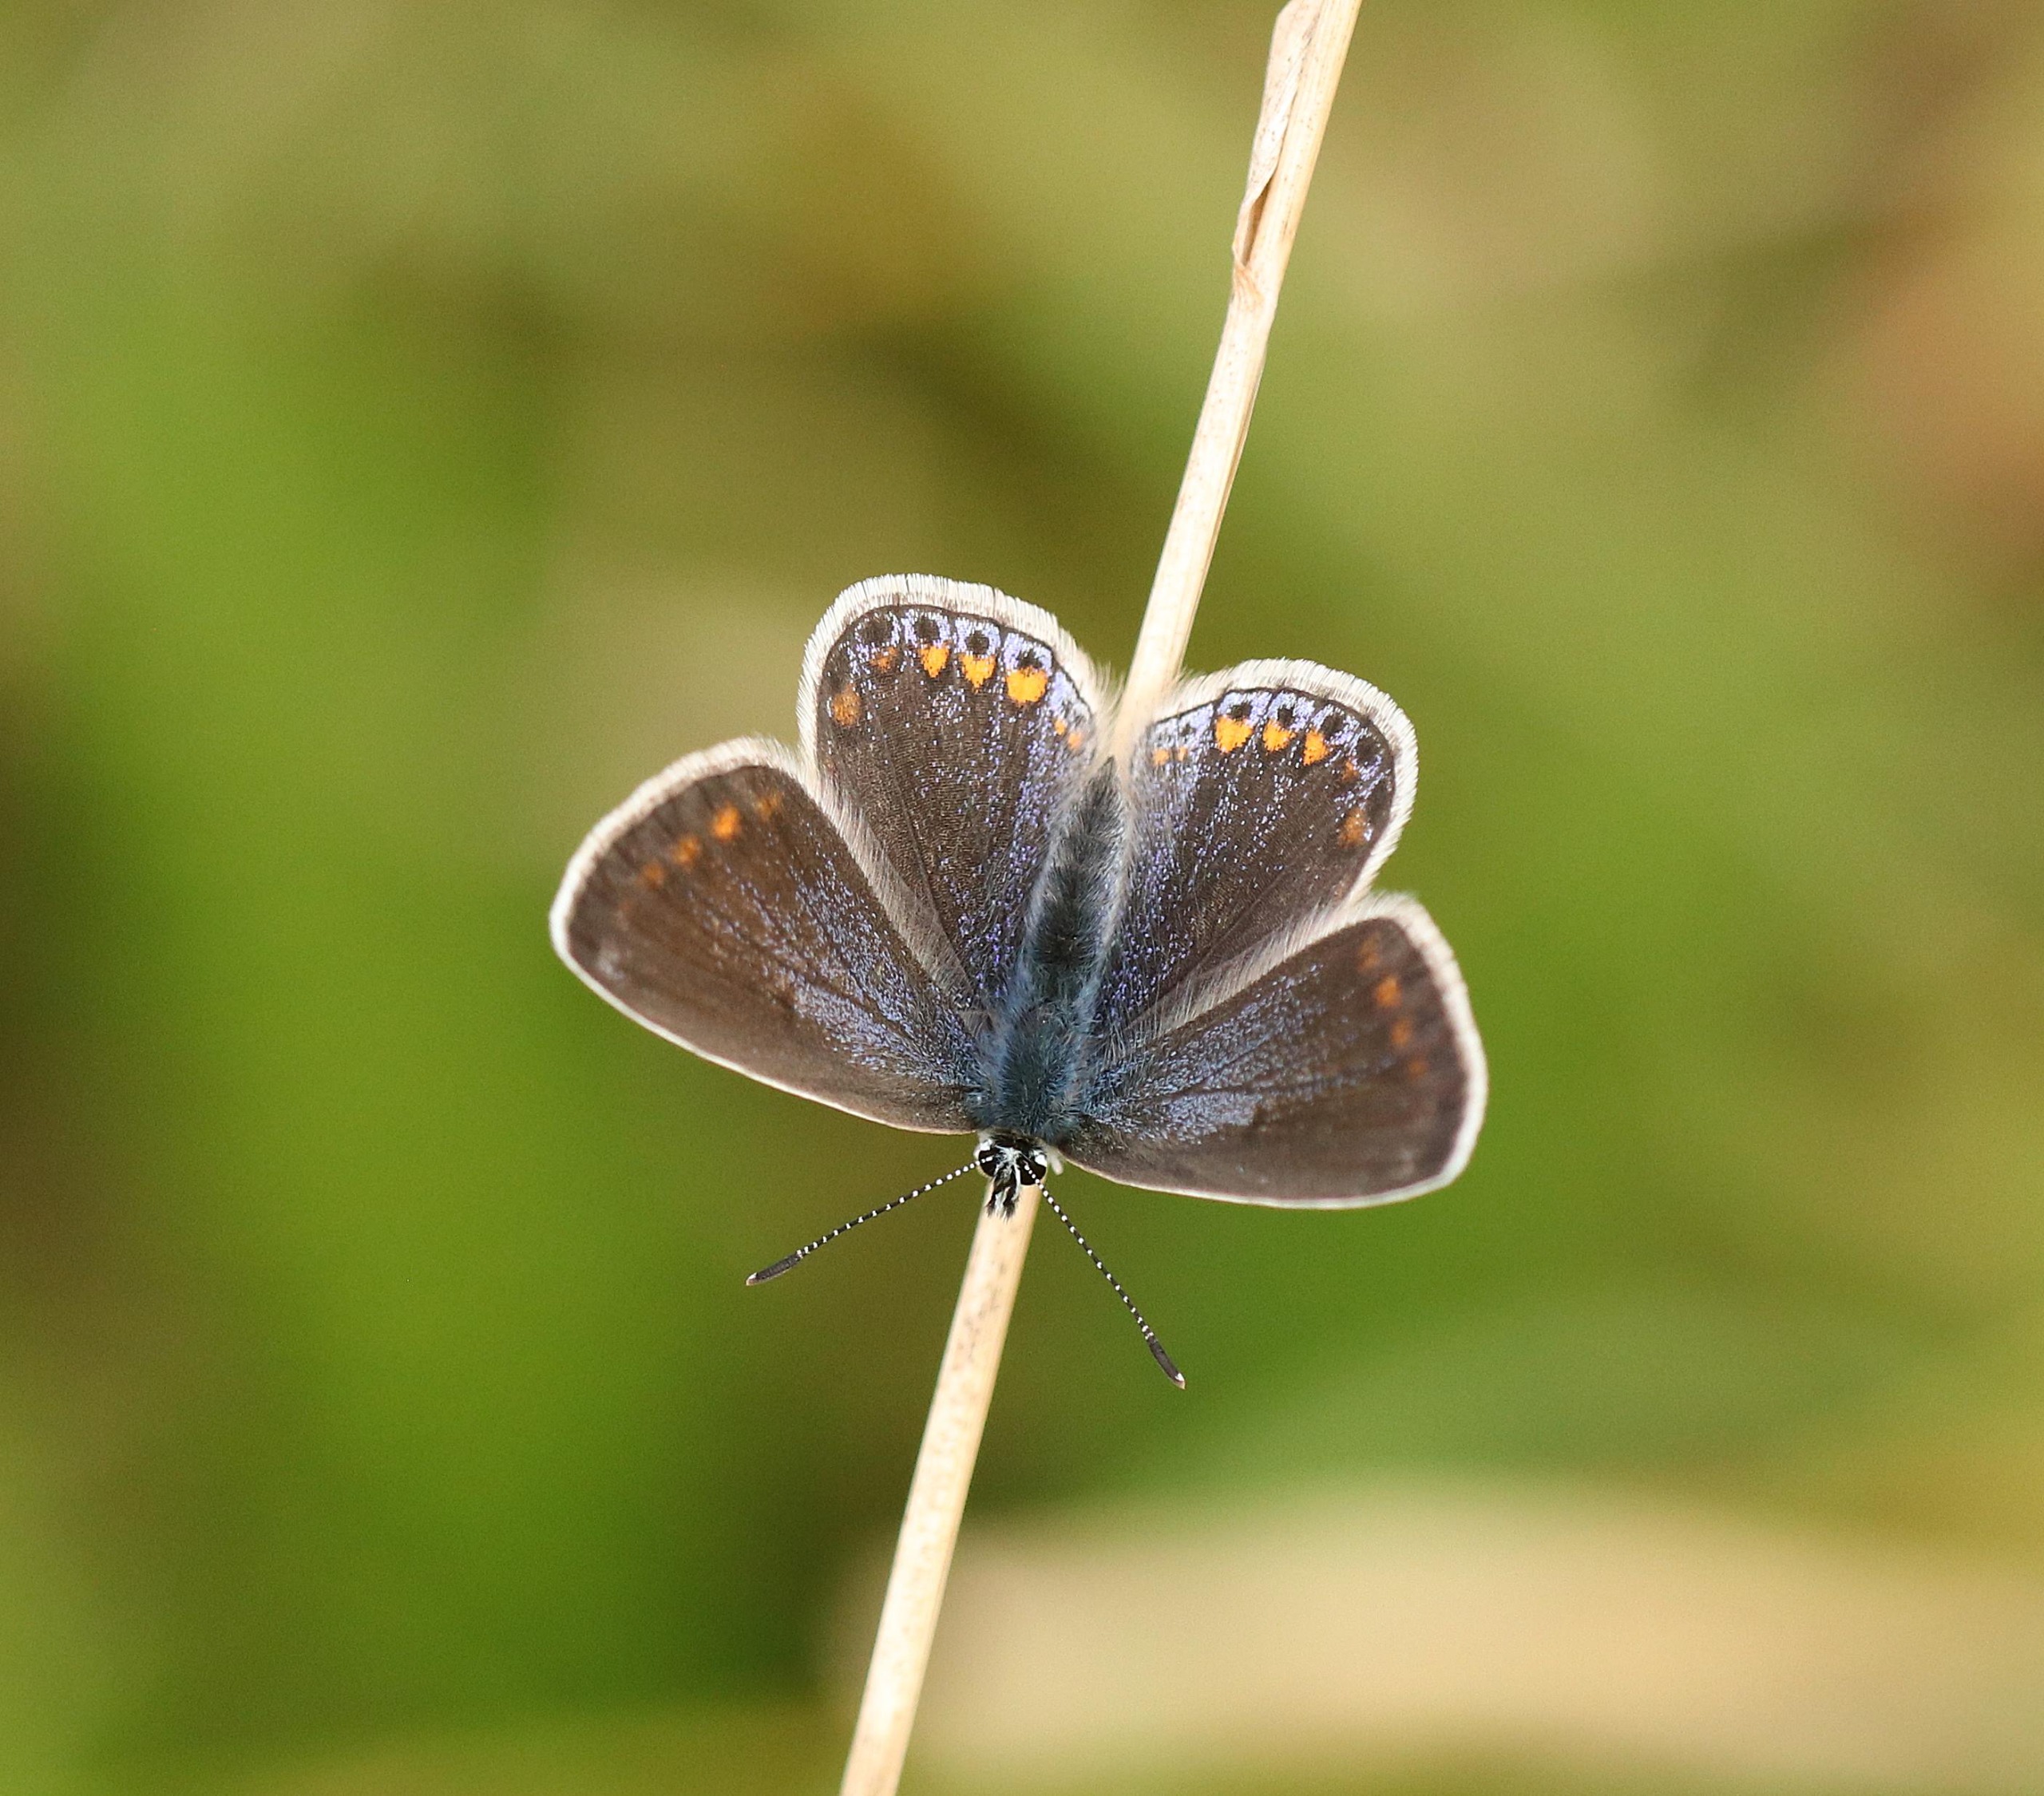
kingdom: Animalia
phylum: Arthropoda
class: Insecta
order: Lepidoptera
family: Lycaenidae
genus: Polyommatus
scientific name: Polyommatus icarus
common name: Almindelig blåfugl
